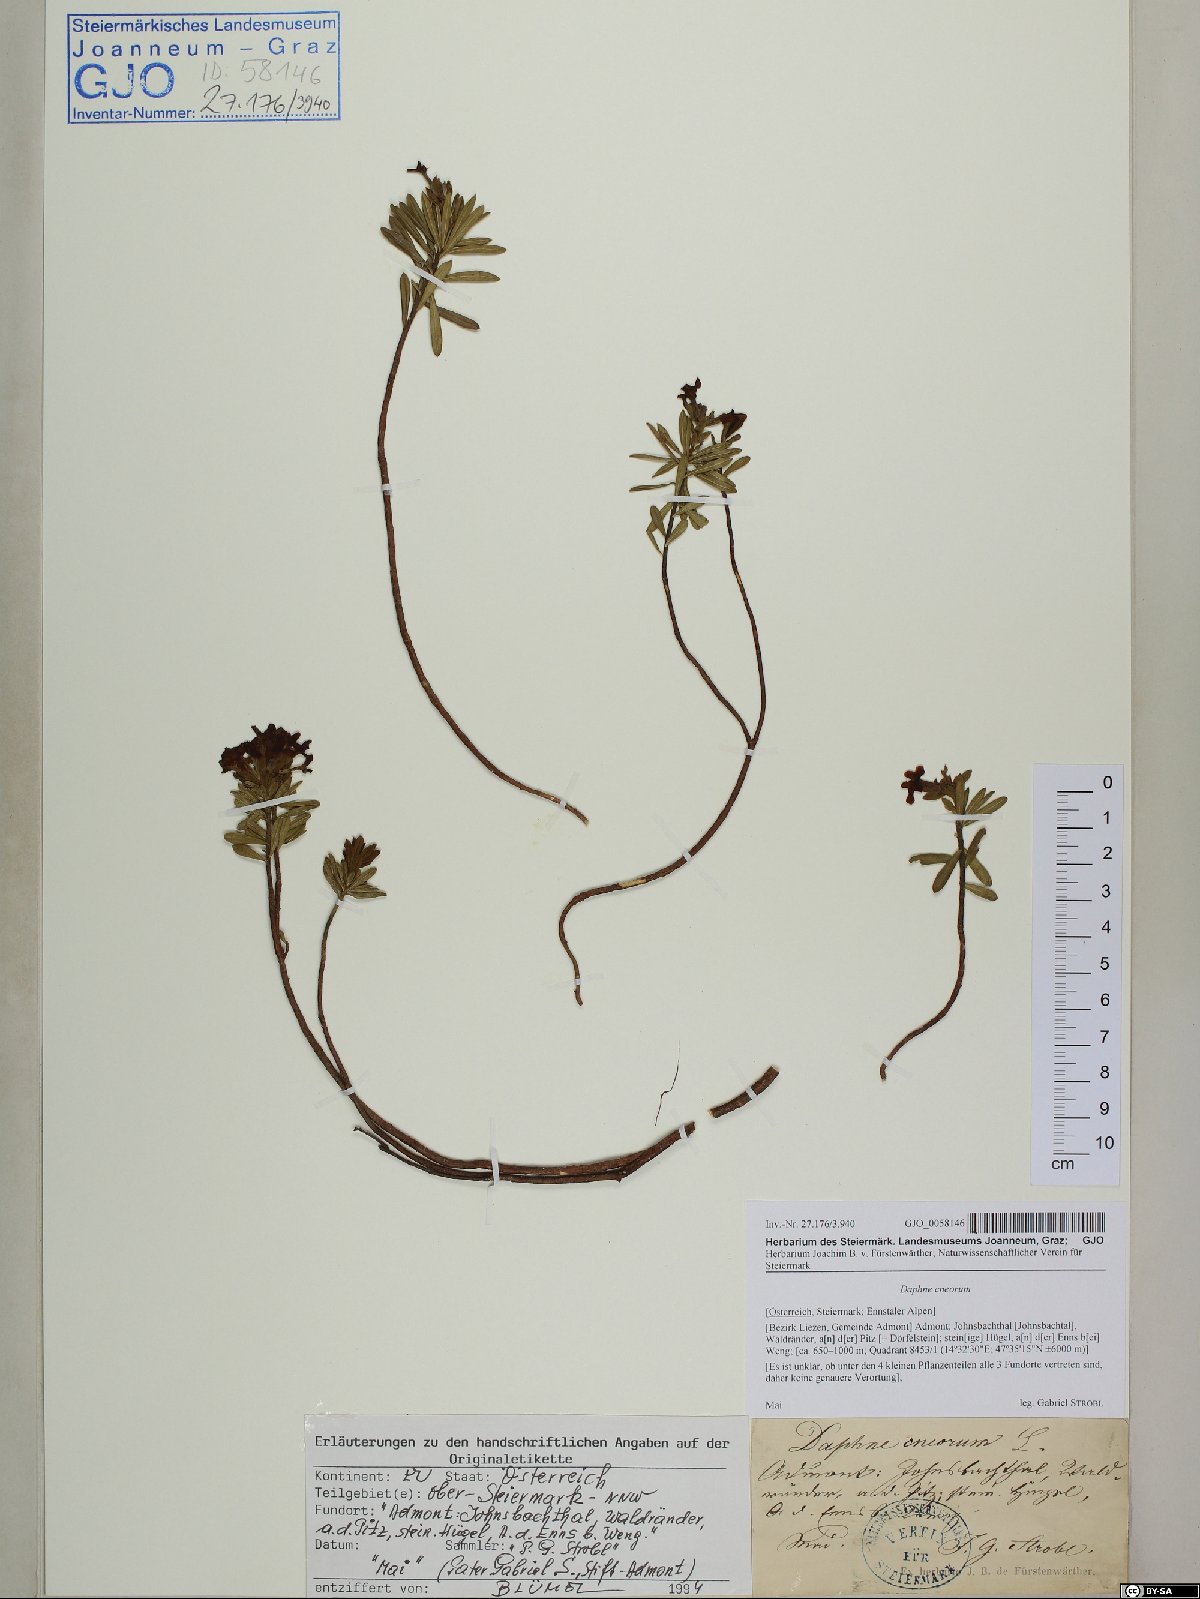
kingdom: Plantae
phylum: Tracheophyta
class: Magnoliopsida
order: Malvales
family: Thymelaeaceae
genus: Daphne
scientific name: Daphne cneorum
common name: Garland-flower
